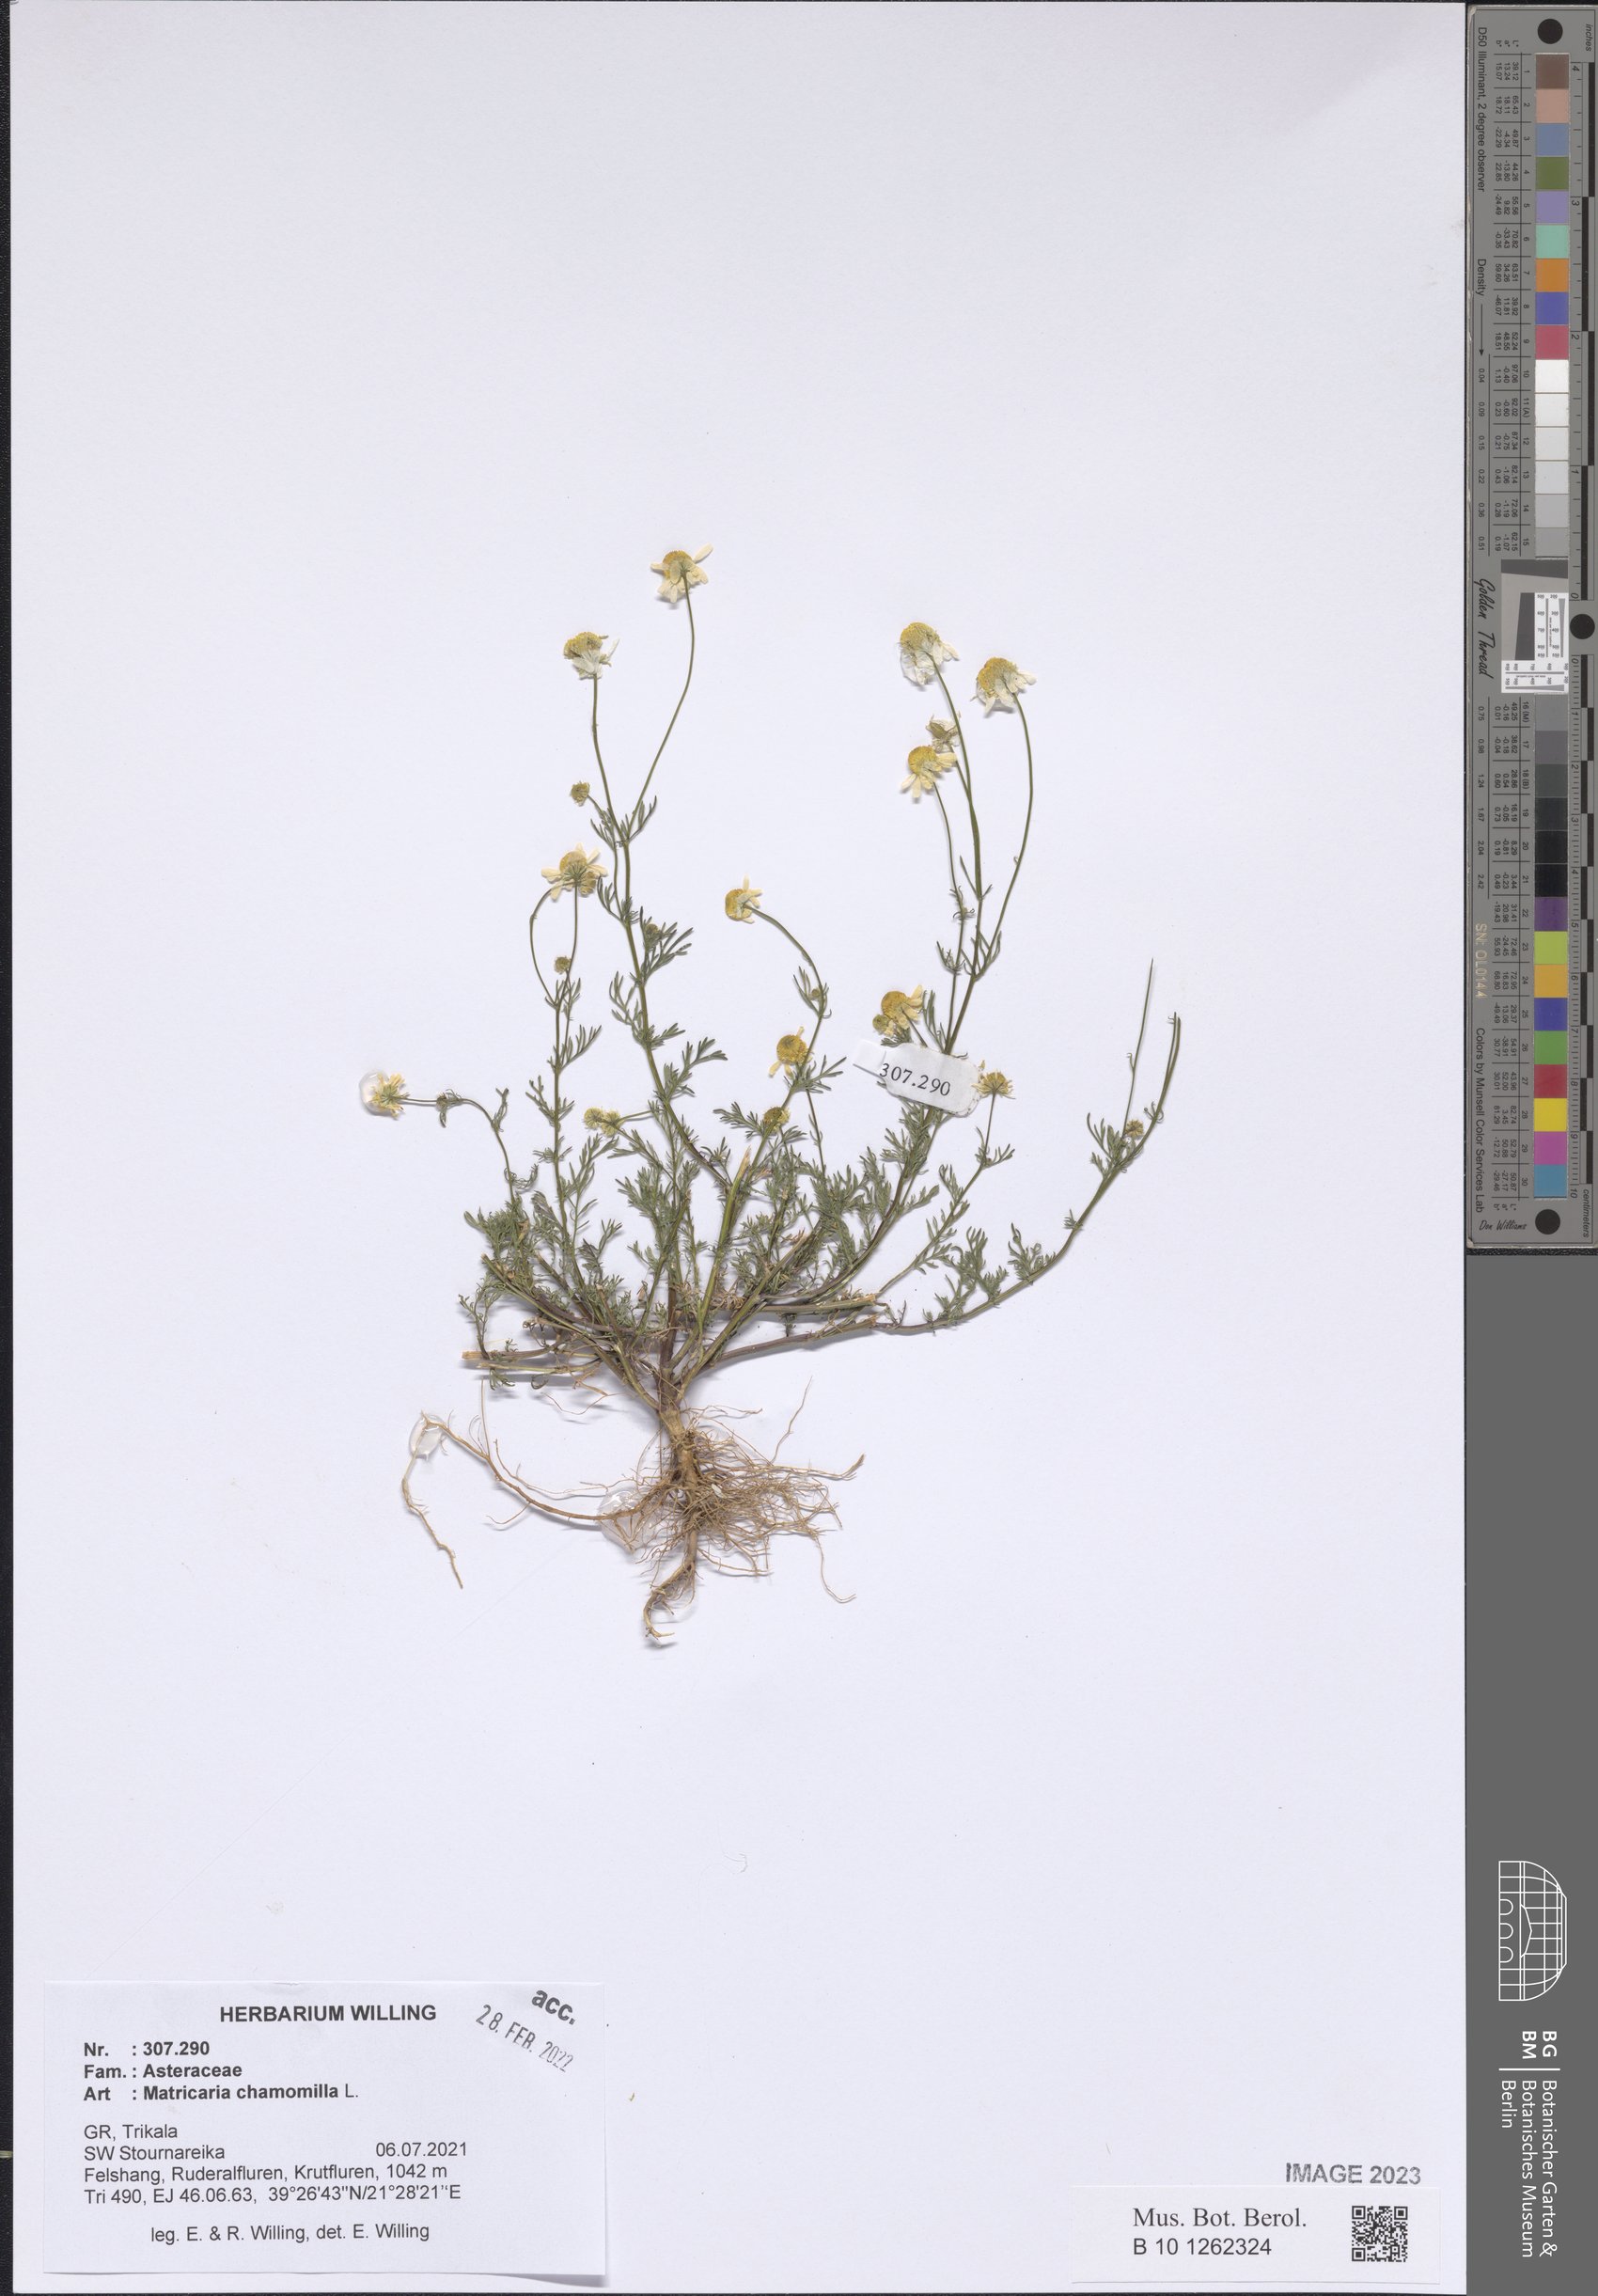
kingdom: Plantae
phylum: Tracheophyta
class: Magnoliopsida
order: Asterales
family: Asteraceae
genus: Matricaria
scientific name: Matricaria chamomilla
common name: Scented mayweed
